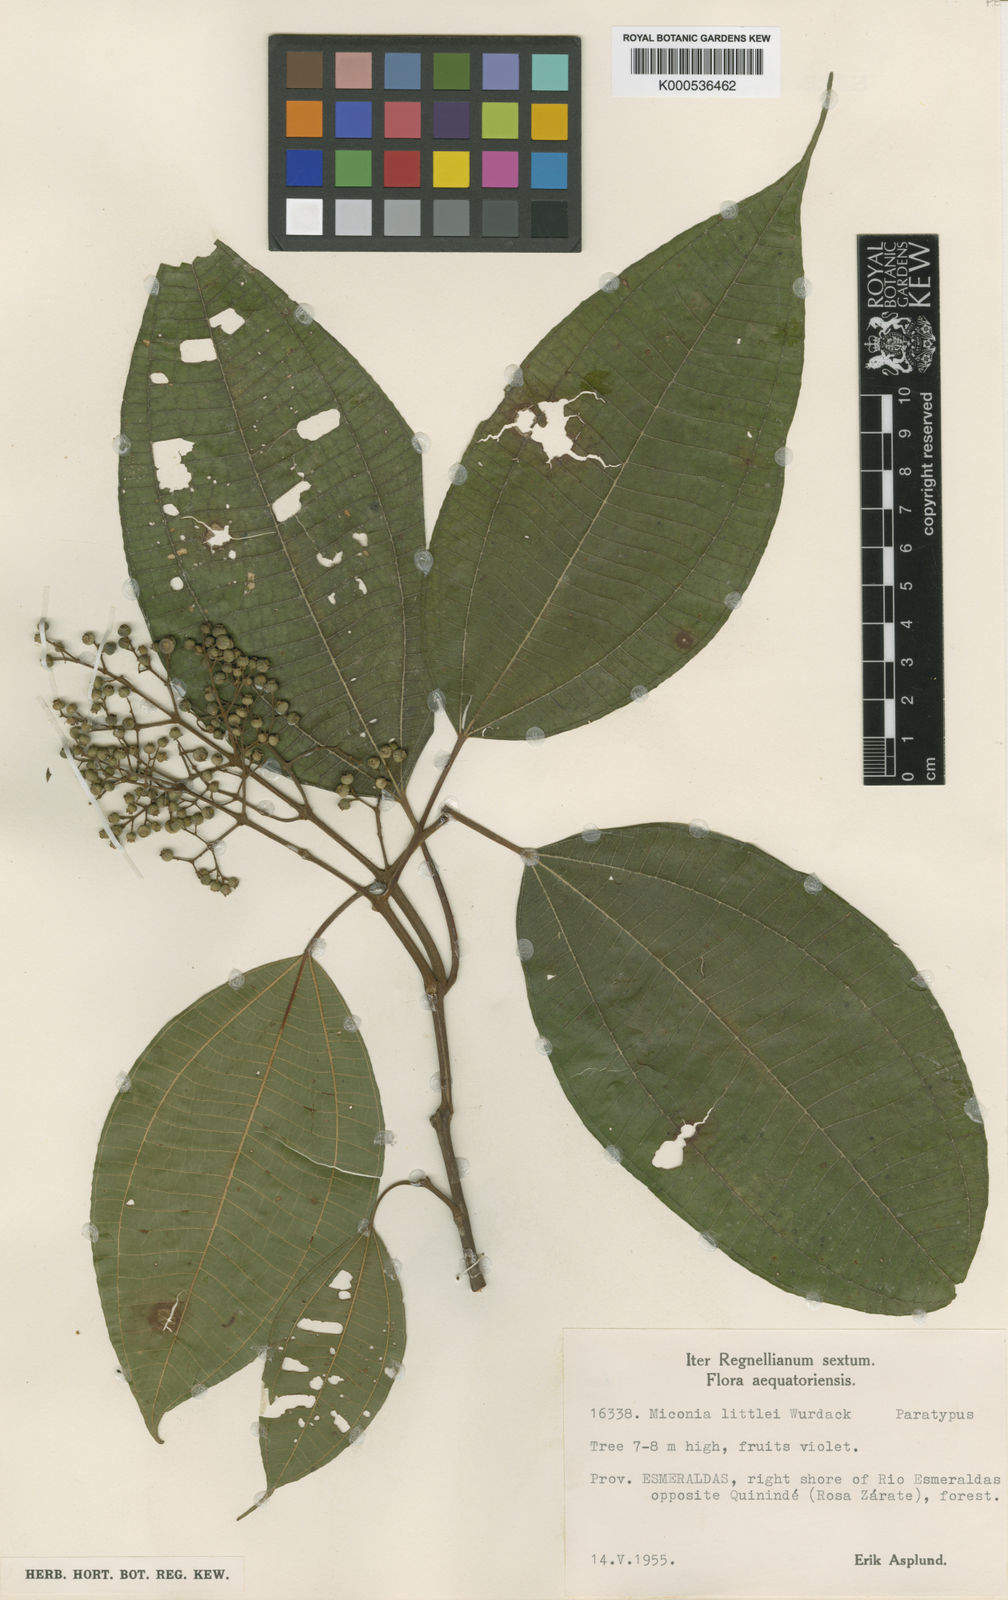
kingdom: Plantae
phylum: Tracheophyta
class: Magnoliopsida
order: Myrtales
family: Melastomataceae
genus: Miconia
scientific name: Miconia littlei
